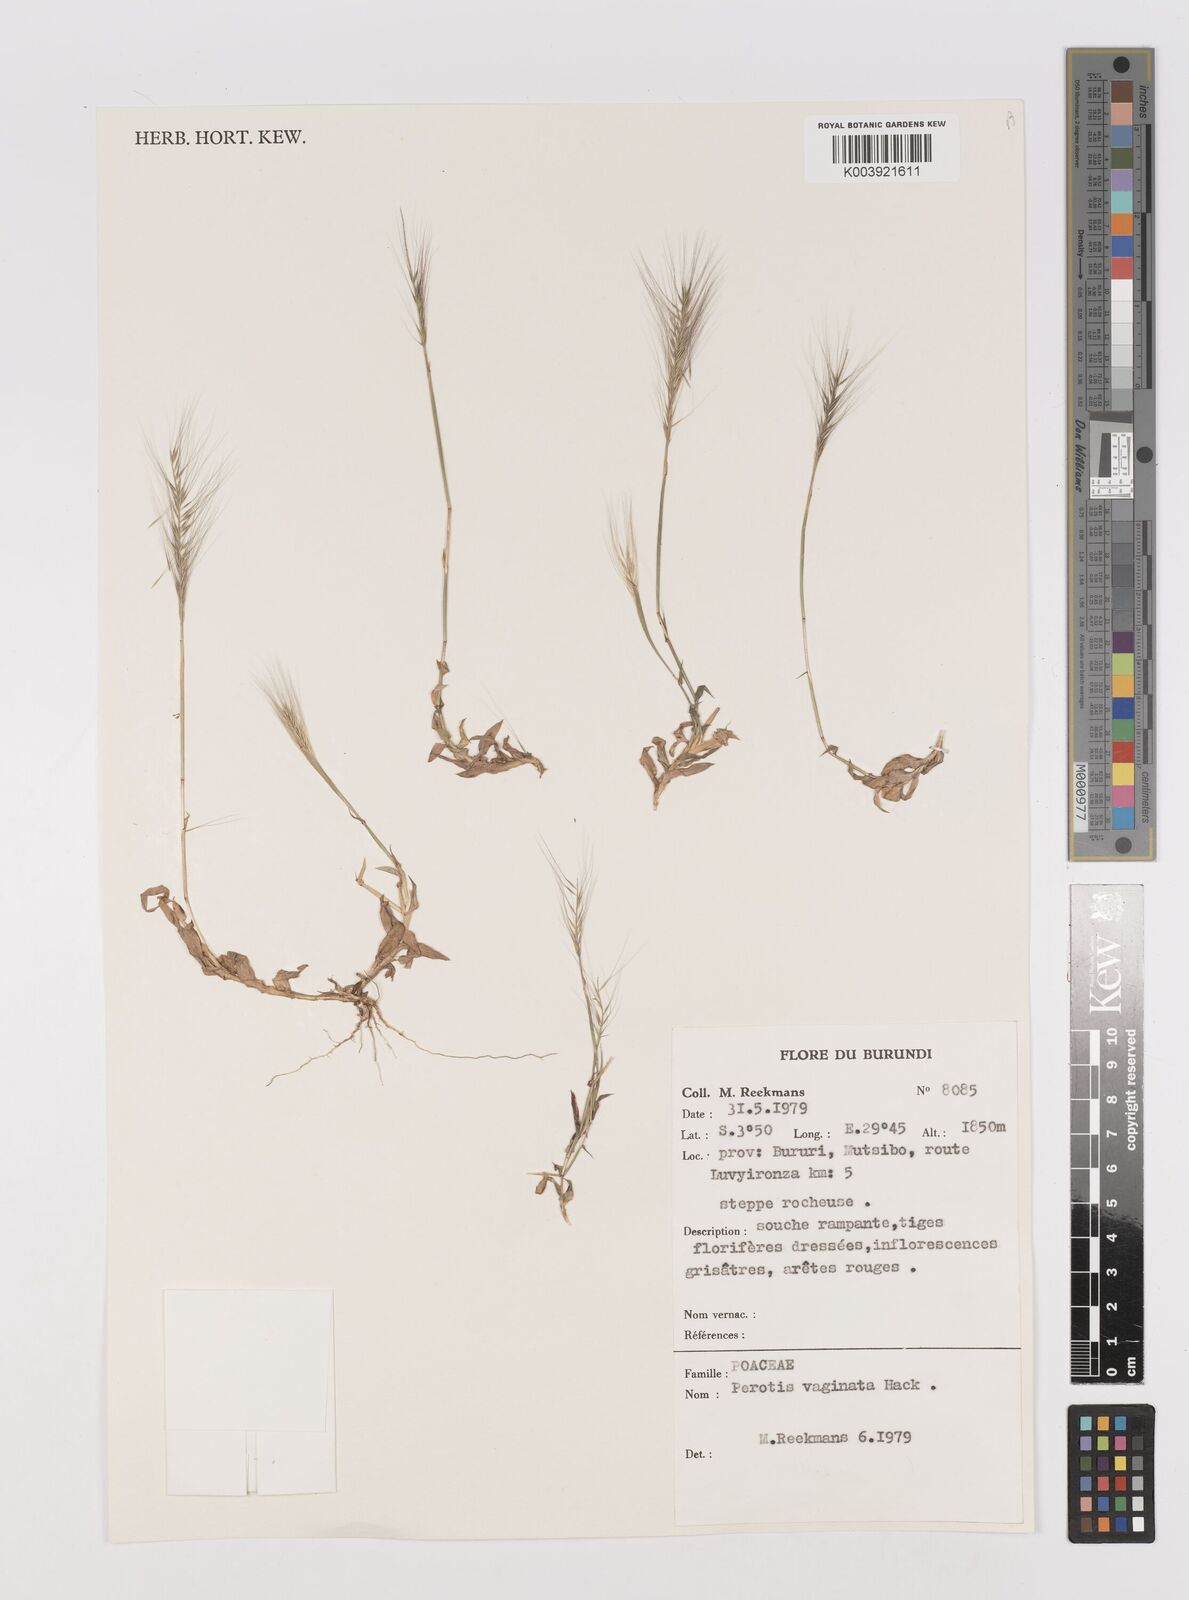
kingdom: Plantae
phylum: Tracheophyta
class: Liliopsida
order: Poales
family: Poaceae
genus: Perotis
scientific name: Perotis vaginata
